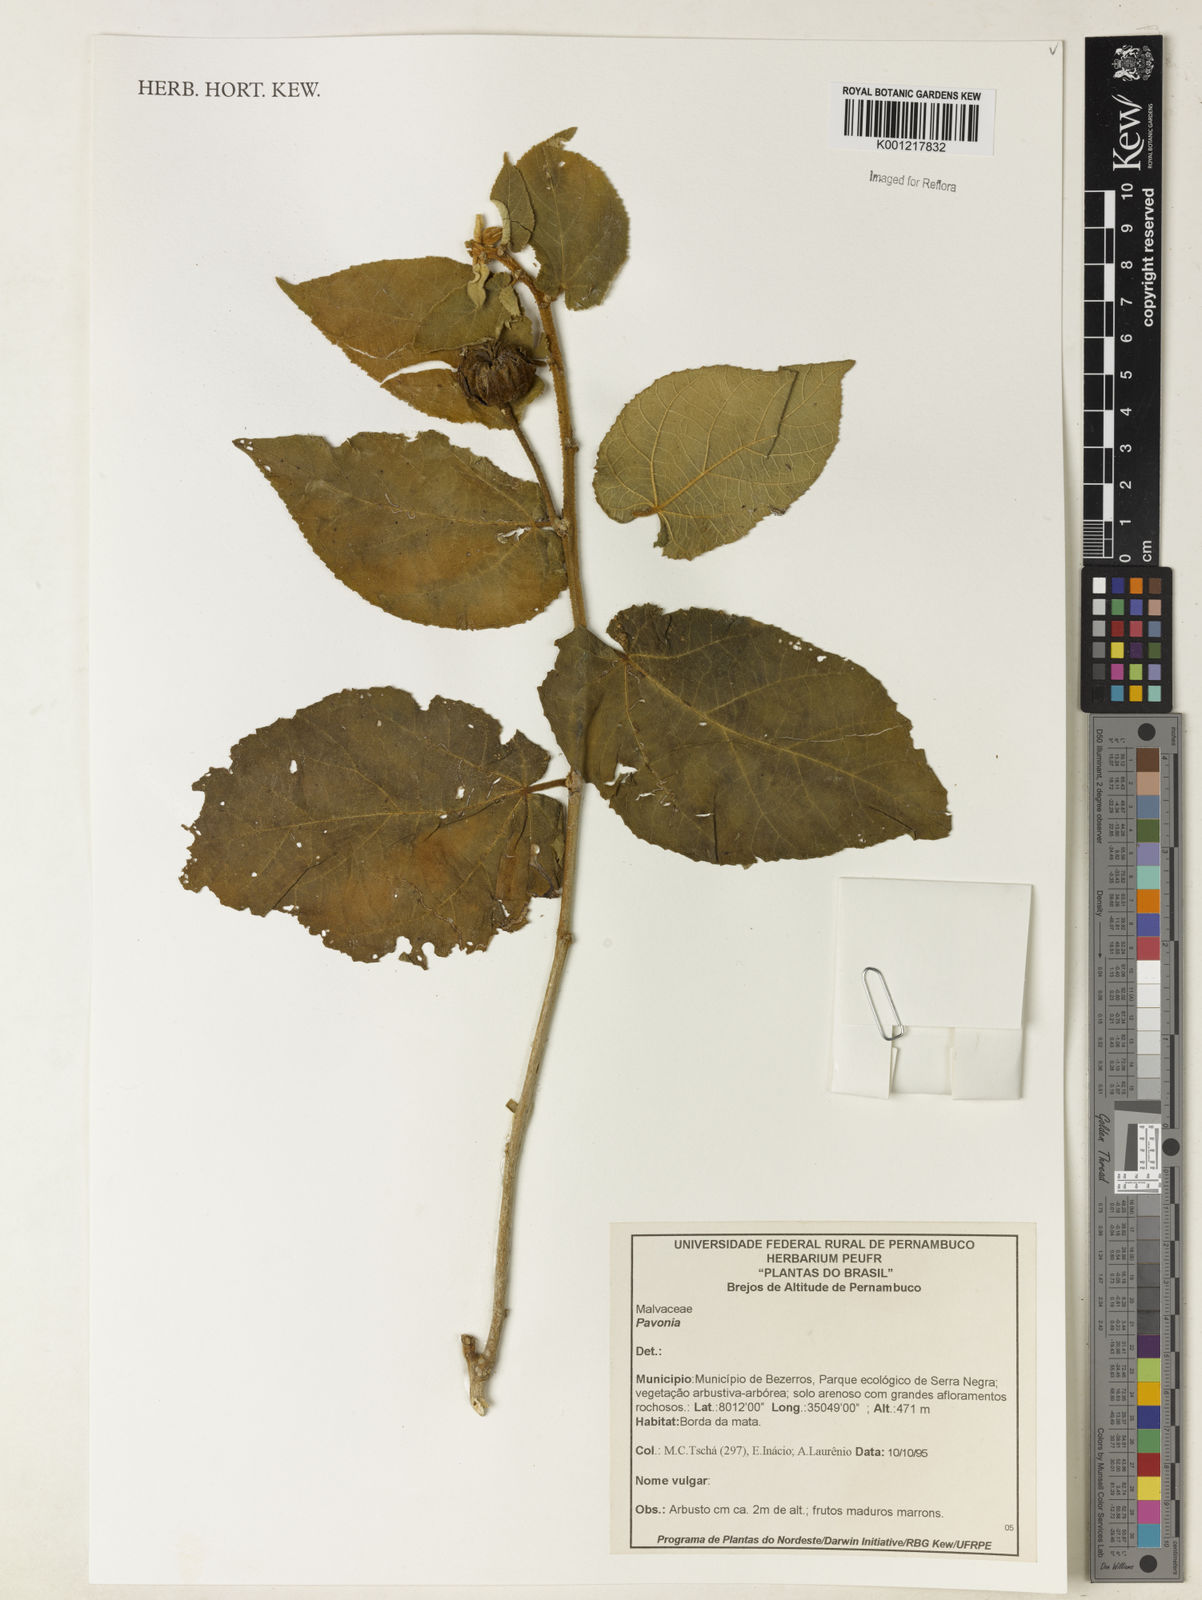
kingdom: Plantae
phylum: Tracheophyta
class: Magnoliopsida
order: Malvales
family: Malvaceae
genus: Pavonia
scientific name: Pavonia
